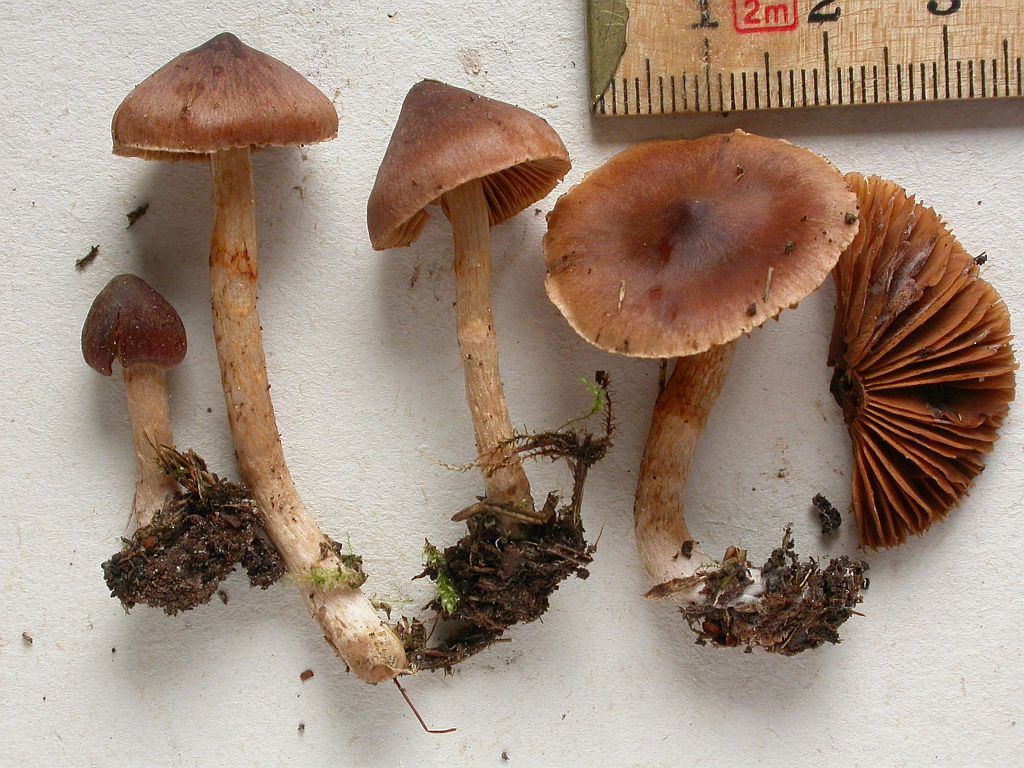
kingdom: Fungi
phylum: Basidiomycota
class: Agaricomycetes
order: Agaricales
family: Cortinariaceae
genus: Cortinarius
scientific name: Cortinarius
